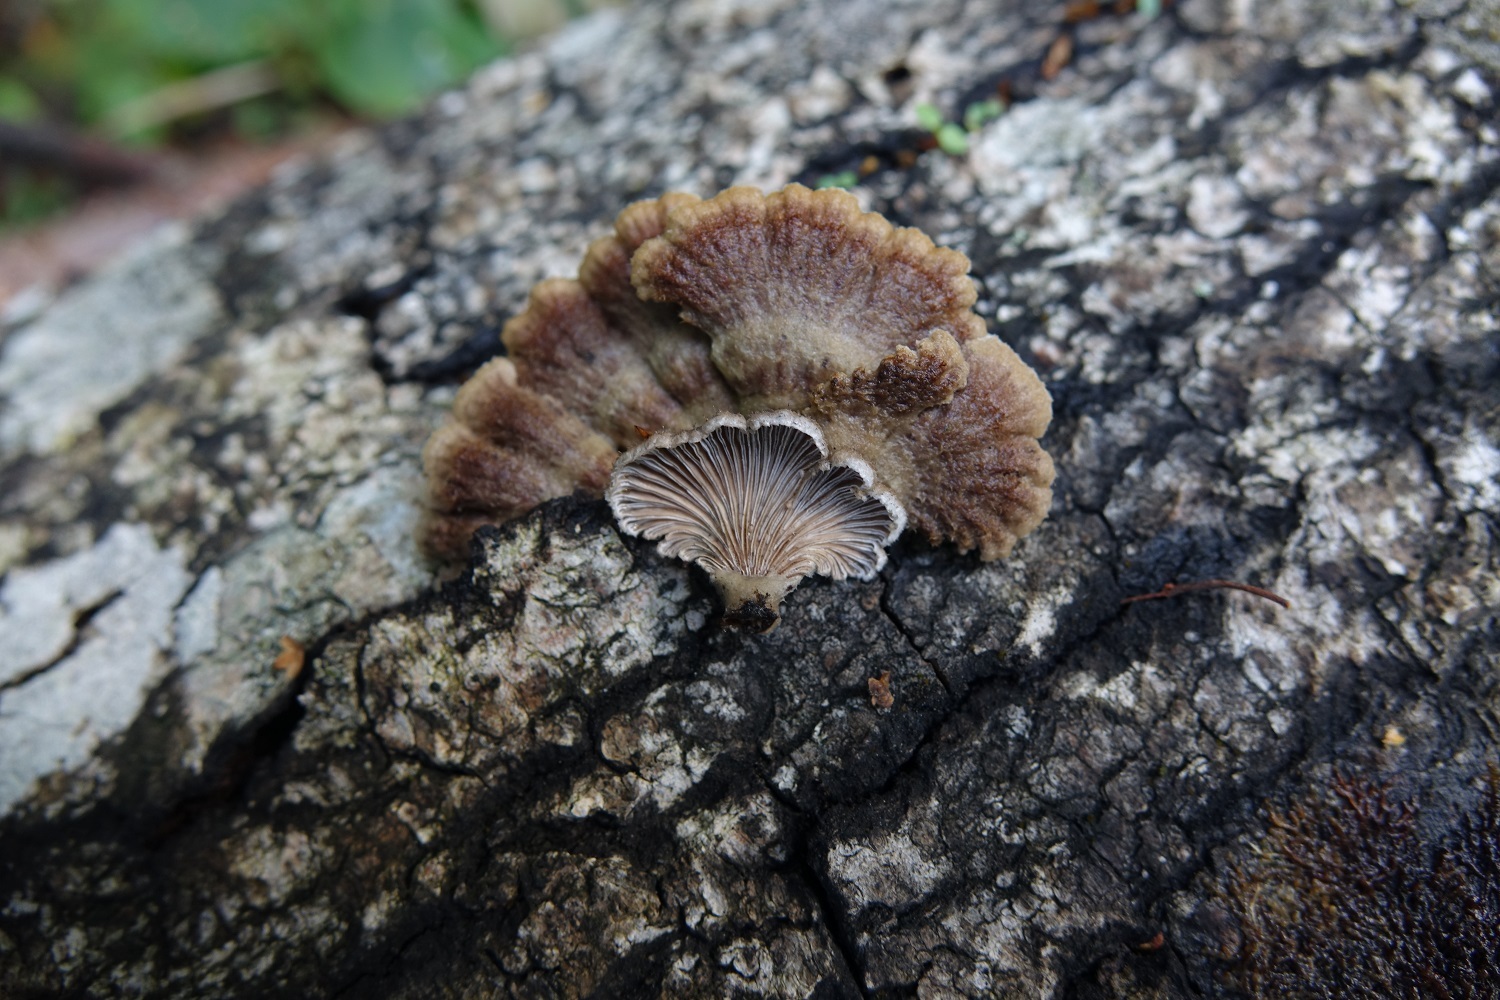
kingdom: Fungi
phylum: Basidiomycota
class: Agaricomycetes
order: Agaricales
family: Schizophyllaceae
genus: Schizophyllum
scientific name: Schizophyllum commune
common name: Common porecrust
